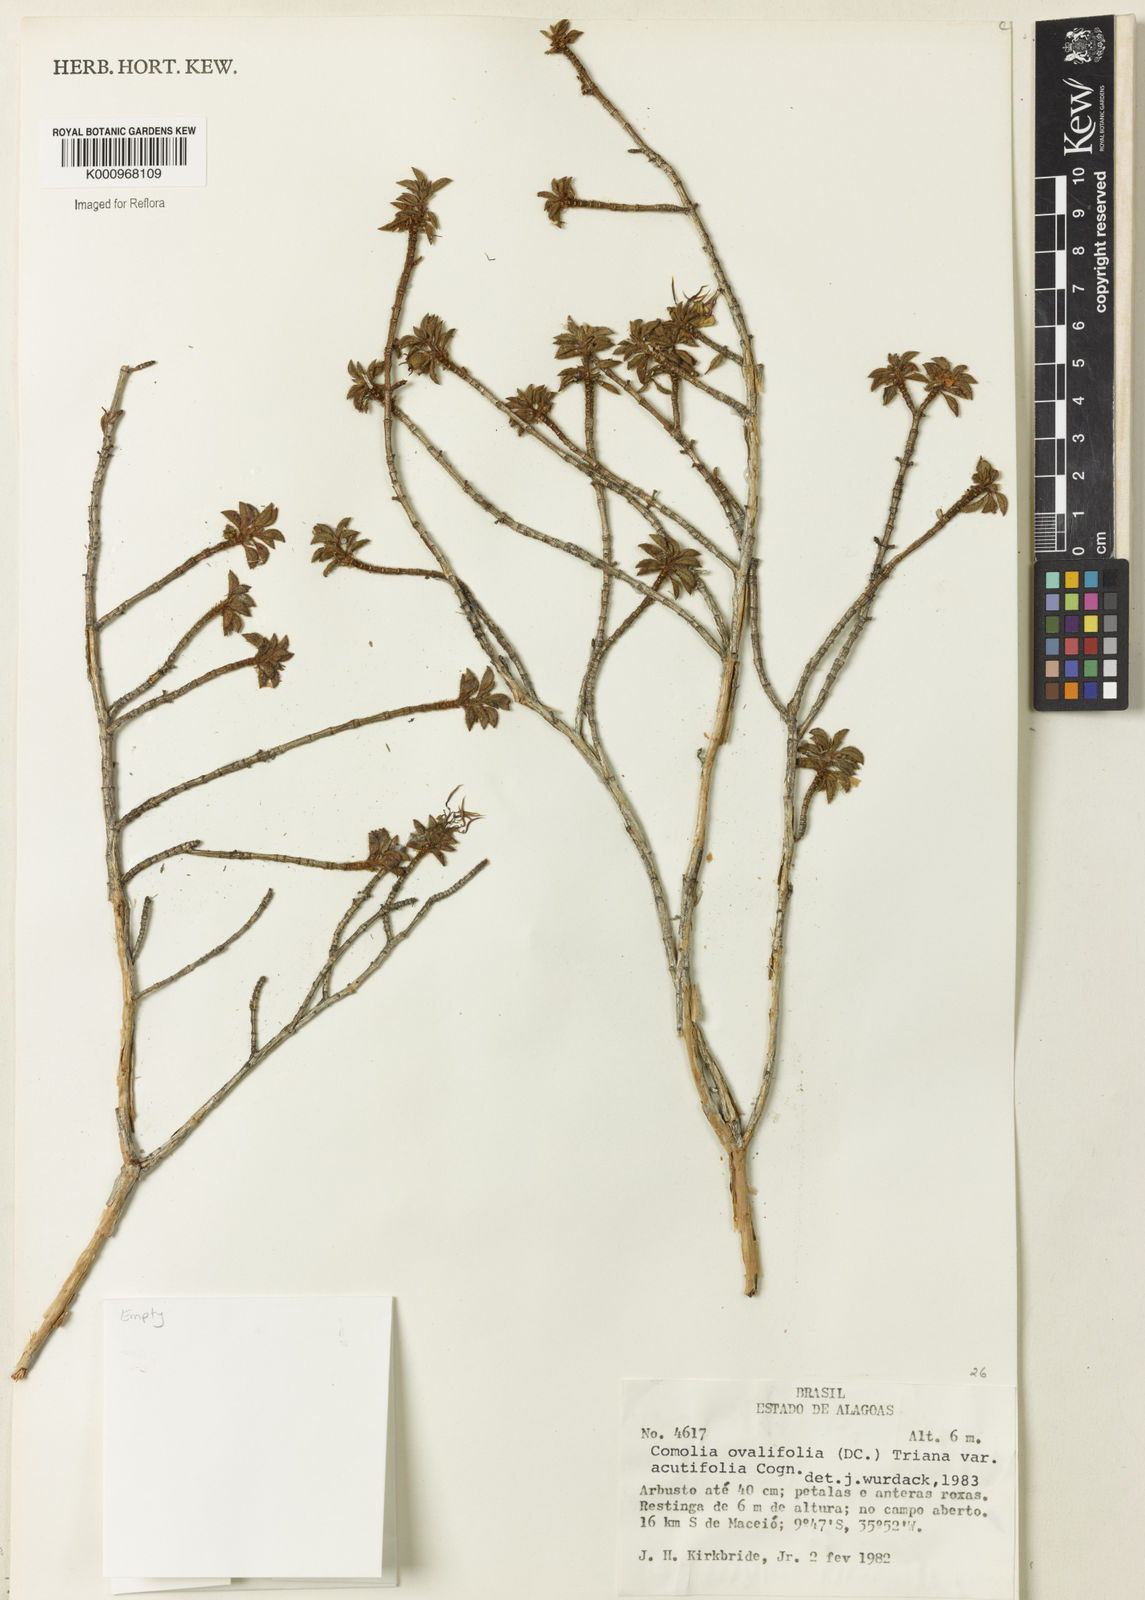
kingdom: Plantae
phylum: Tracheophyta
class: Magnoliopsida
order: Myrtales
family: Melastomataceae
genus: Comolia
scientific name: Comolia ovalifolia
